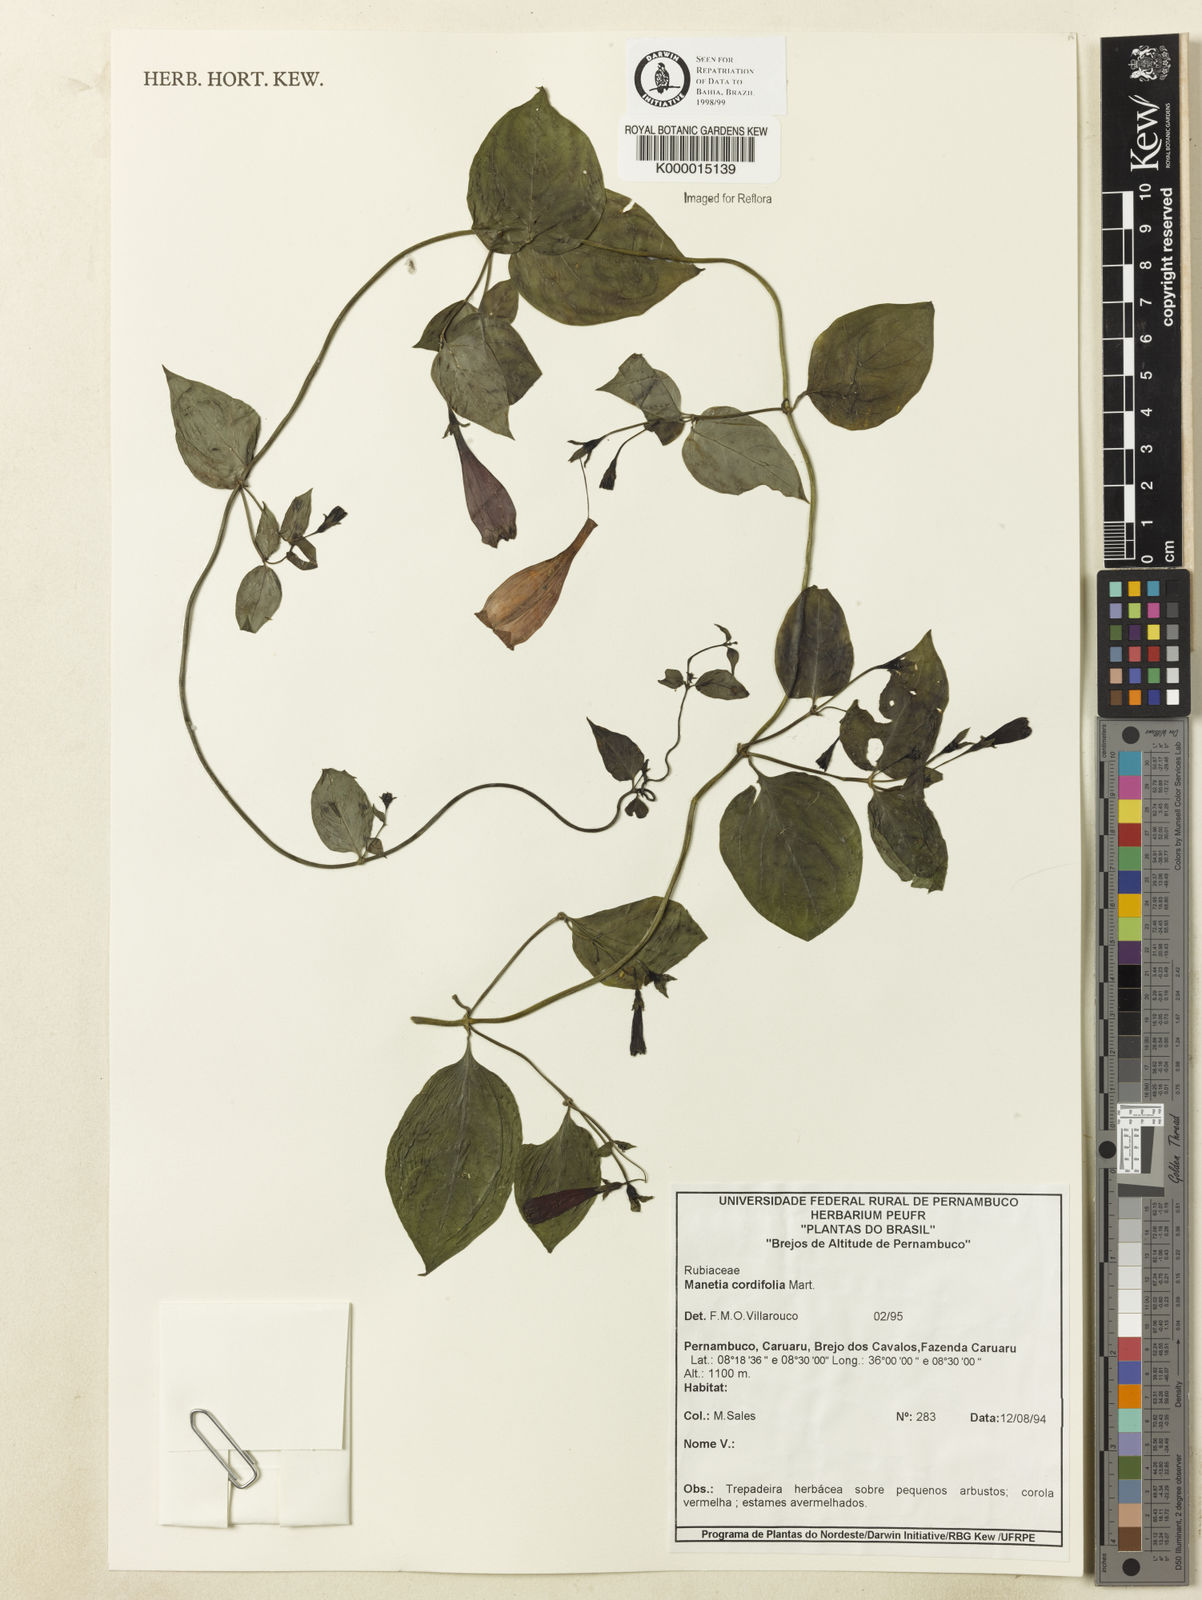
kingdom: Plantae
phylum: Tracheophyta
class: Magnoliopsida
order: Gentianales
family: Rubiaceae
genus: Manettia
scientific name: Manettia cordifolia
